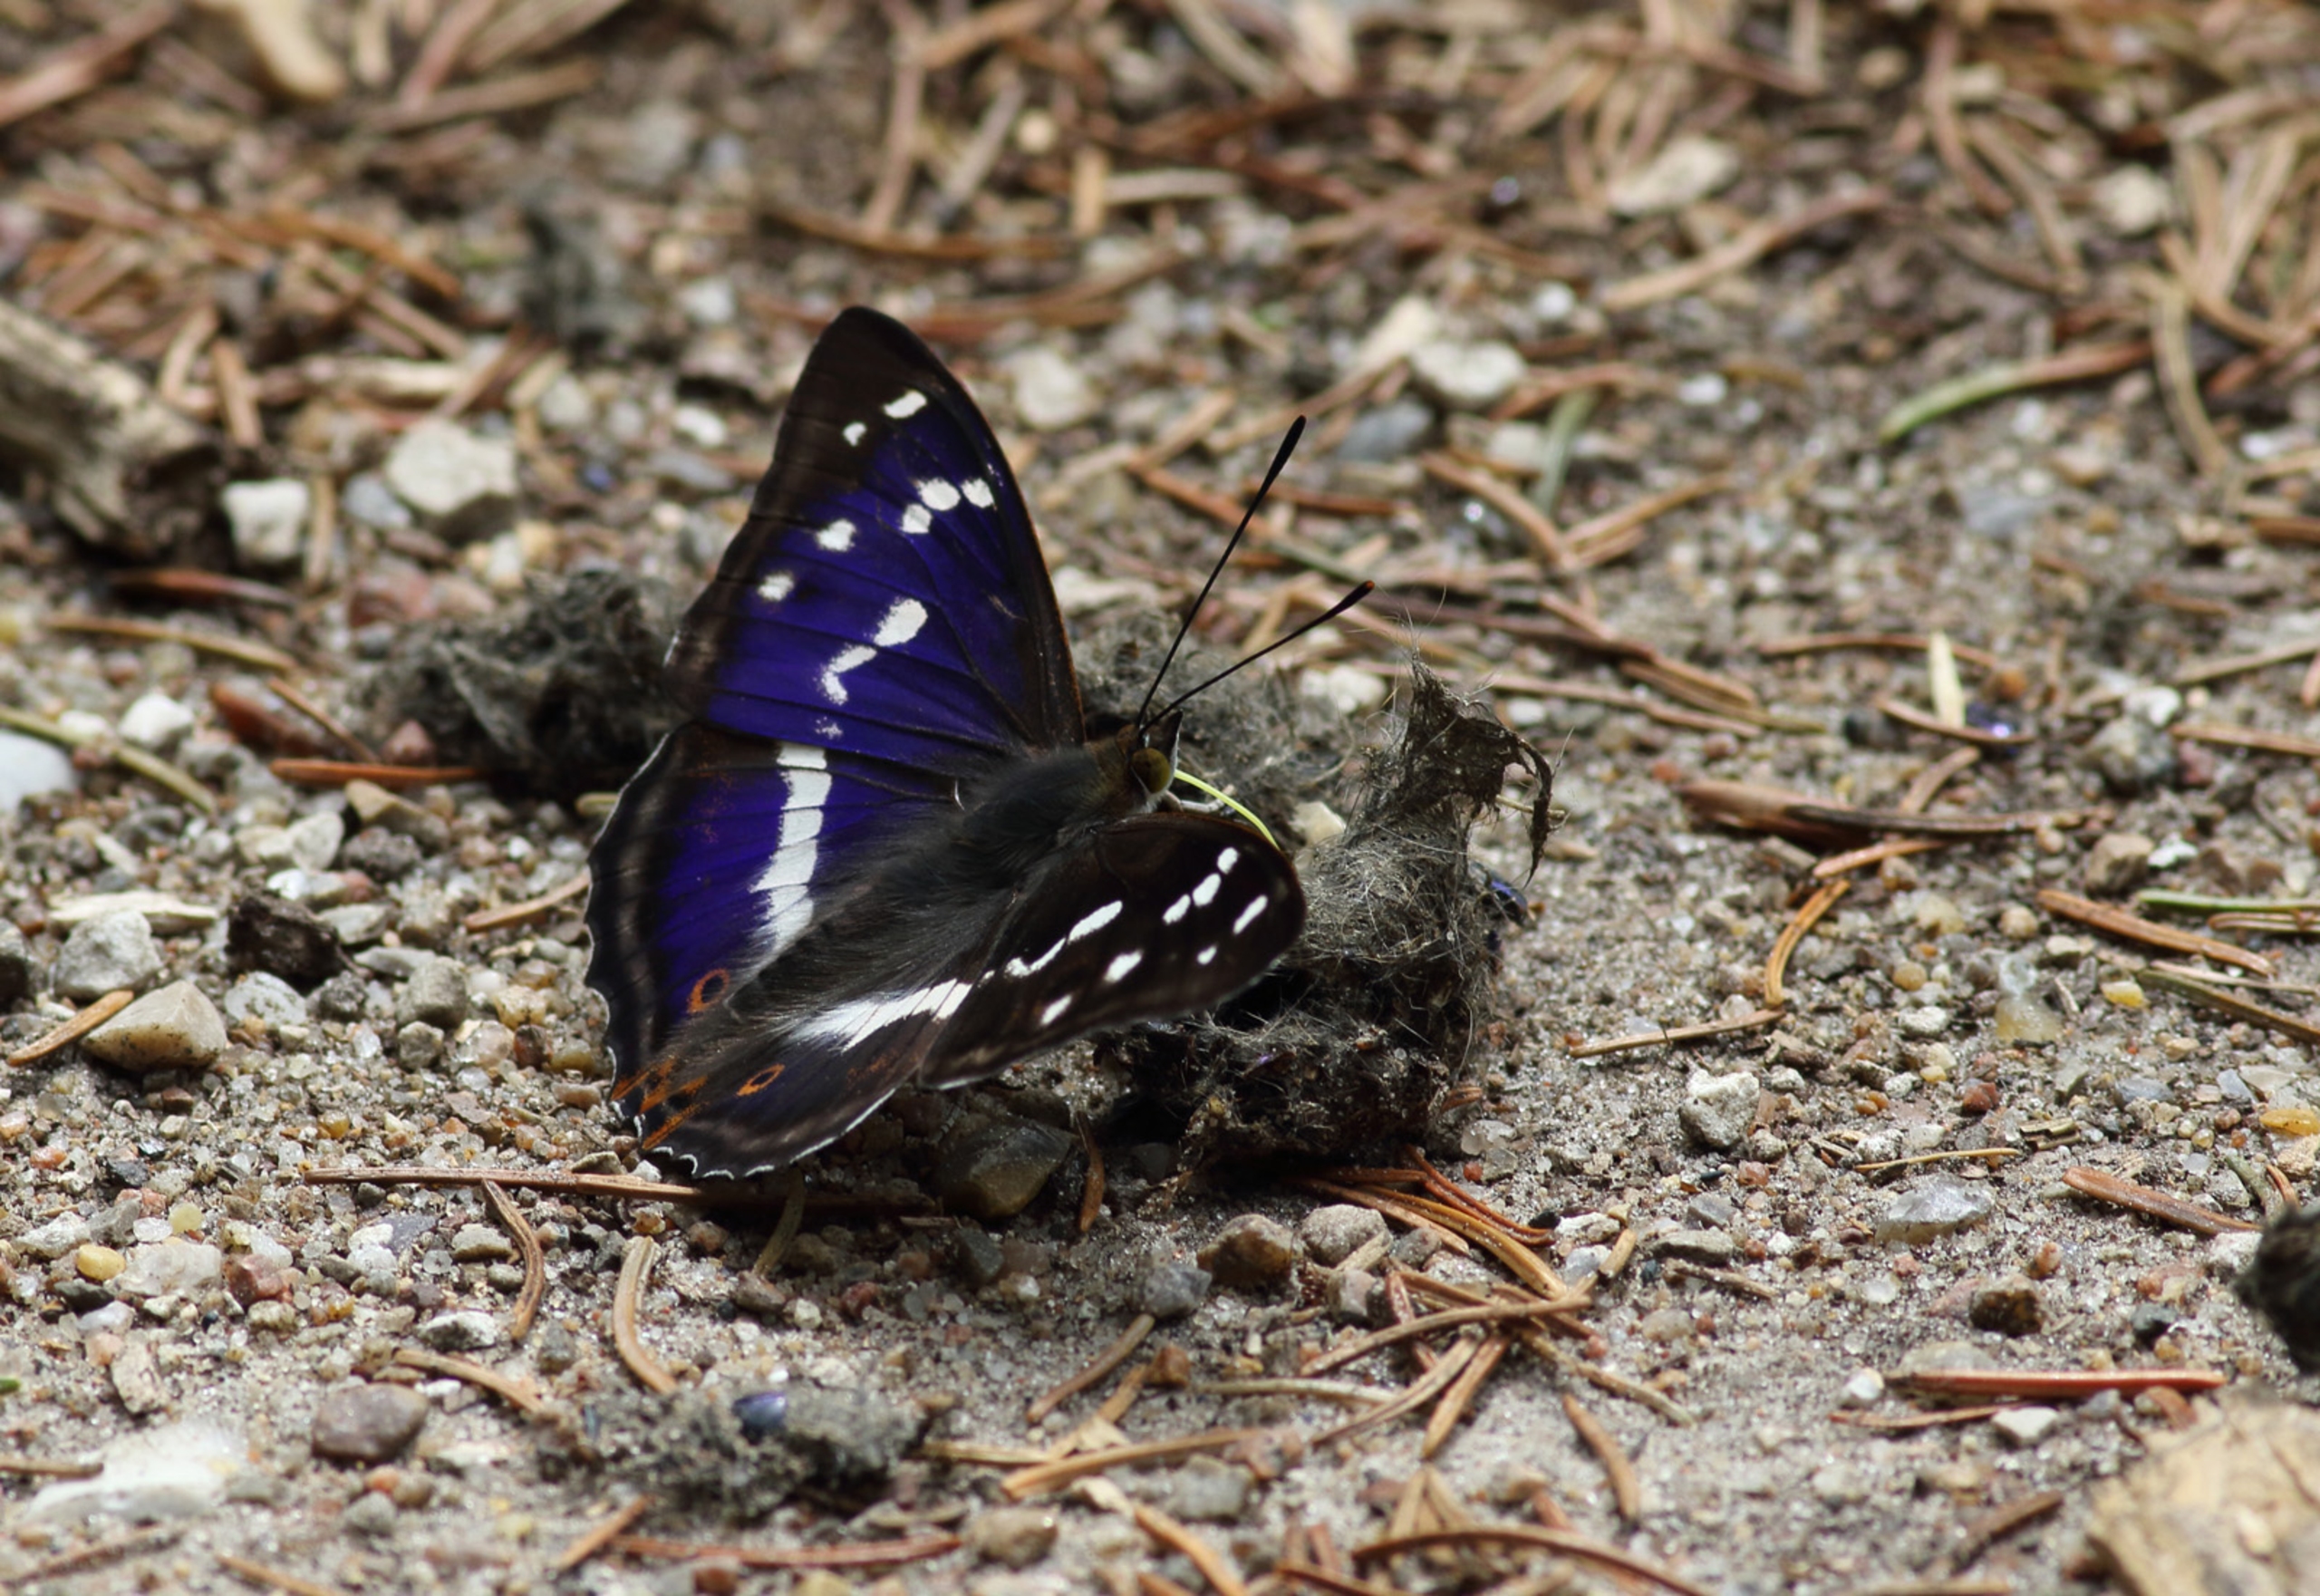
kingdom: Animalia
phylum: Arthropoda
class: Insecta
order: Lepidoptera
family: Nymphalidae
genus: Apatura
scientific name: Apatura iris
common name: Iris
